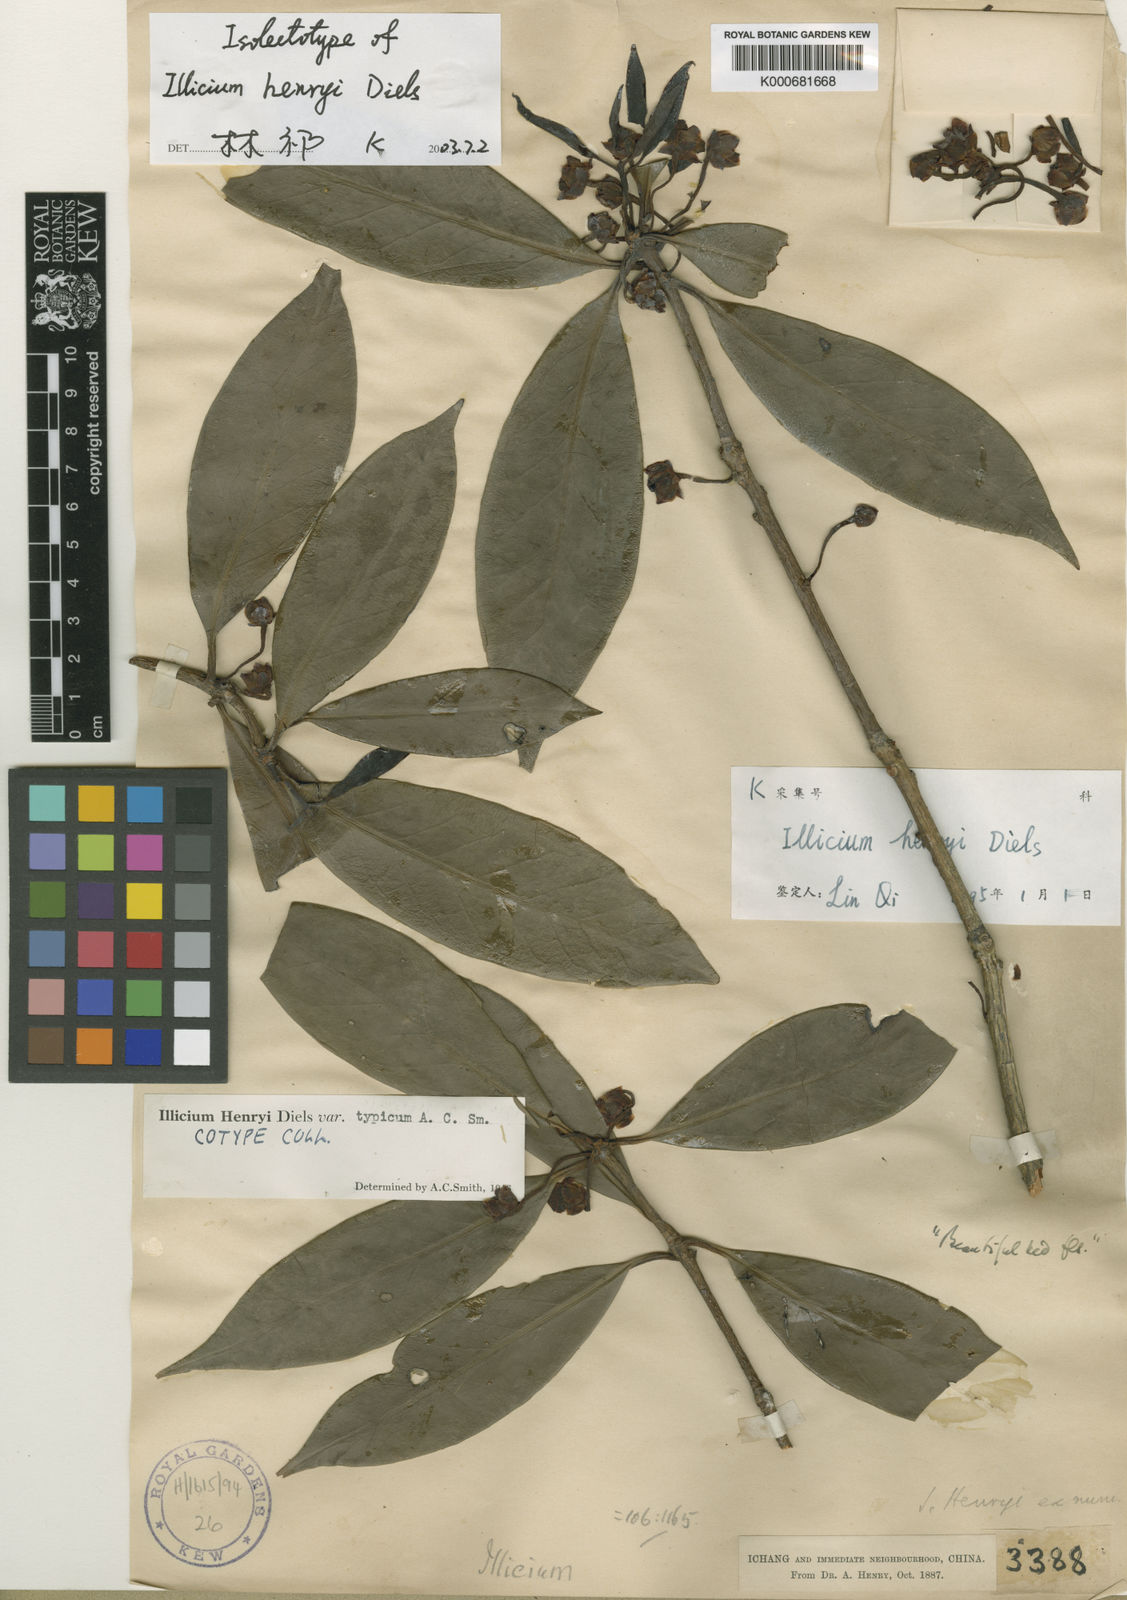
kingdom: Plantae
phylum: Tracheophyta
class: Magnoliopsida
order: Austrobaileyales
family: Schisandraceae
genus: Illicium
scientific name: Illicium henryi
